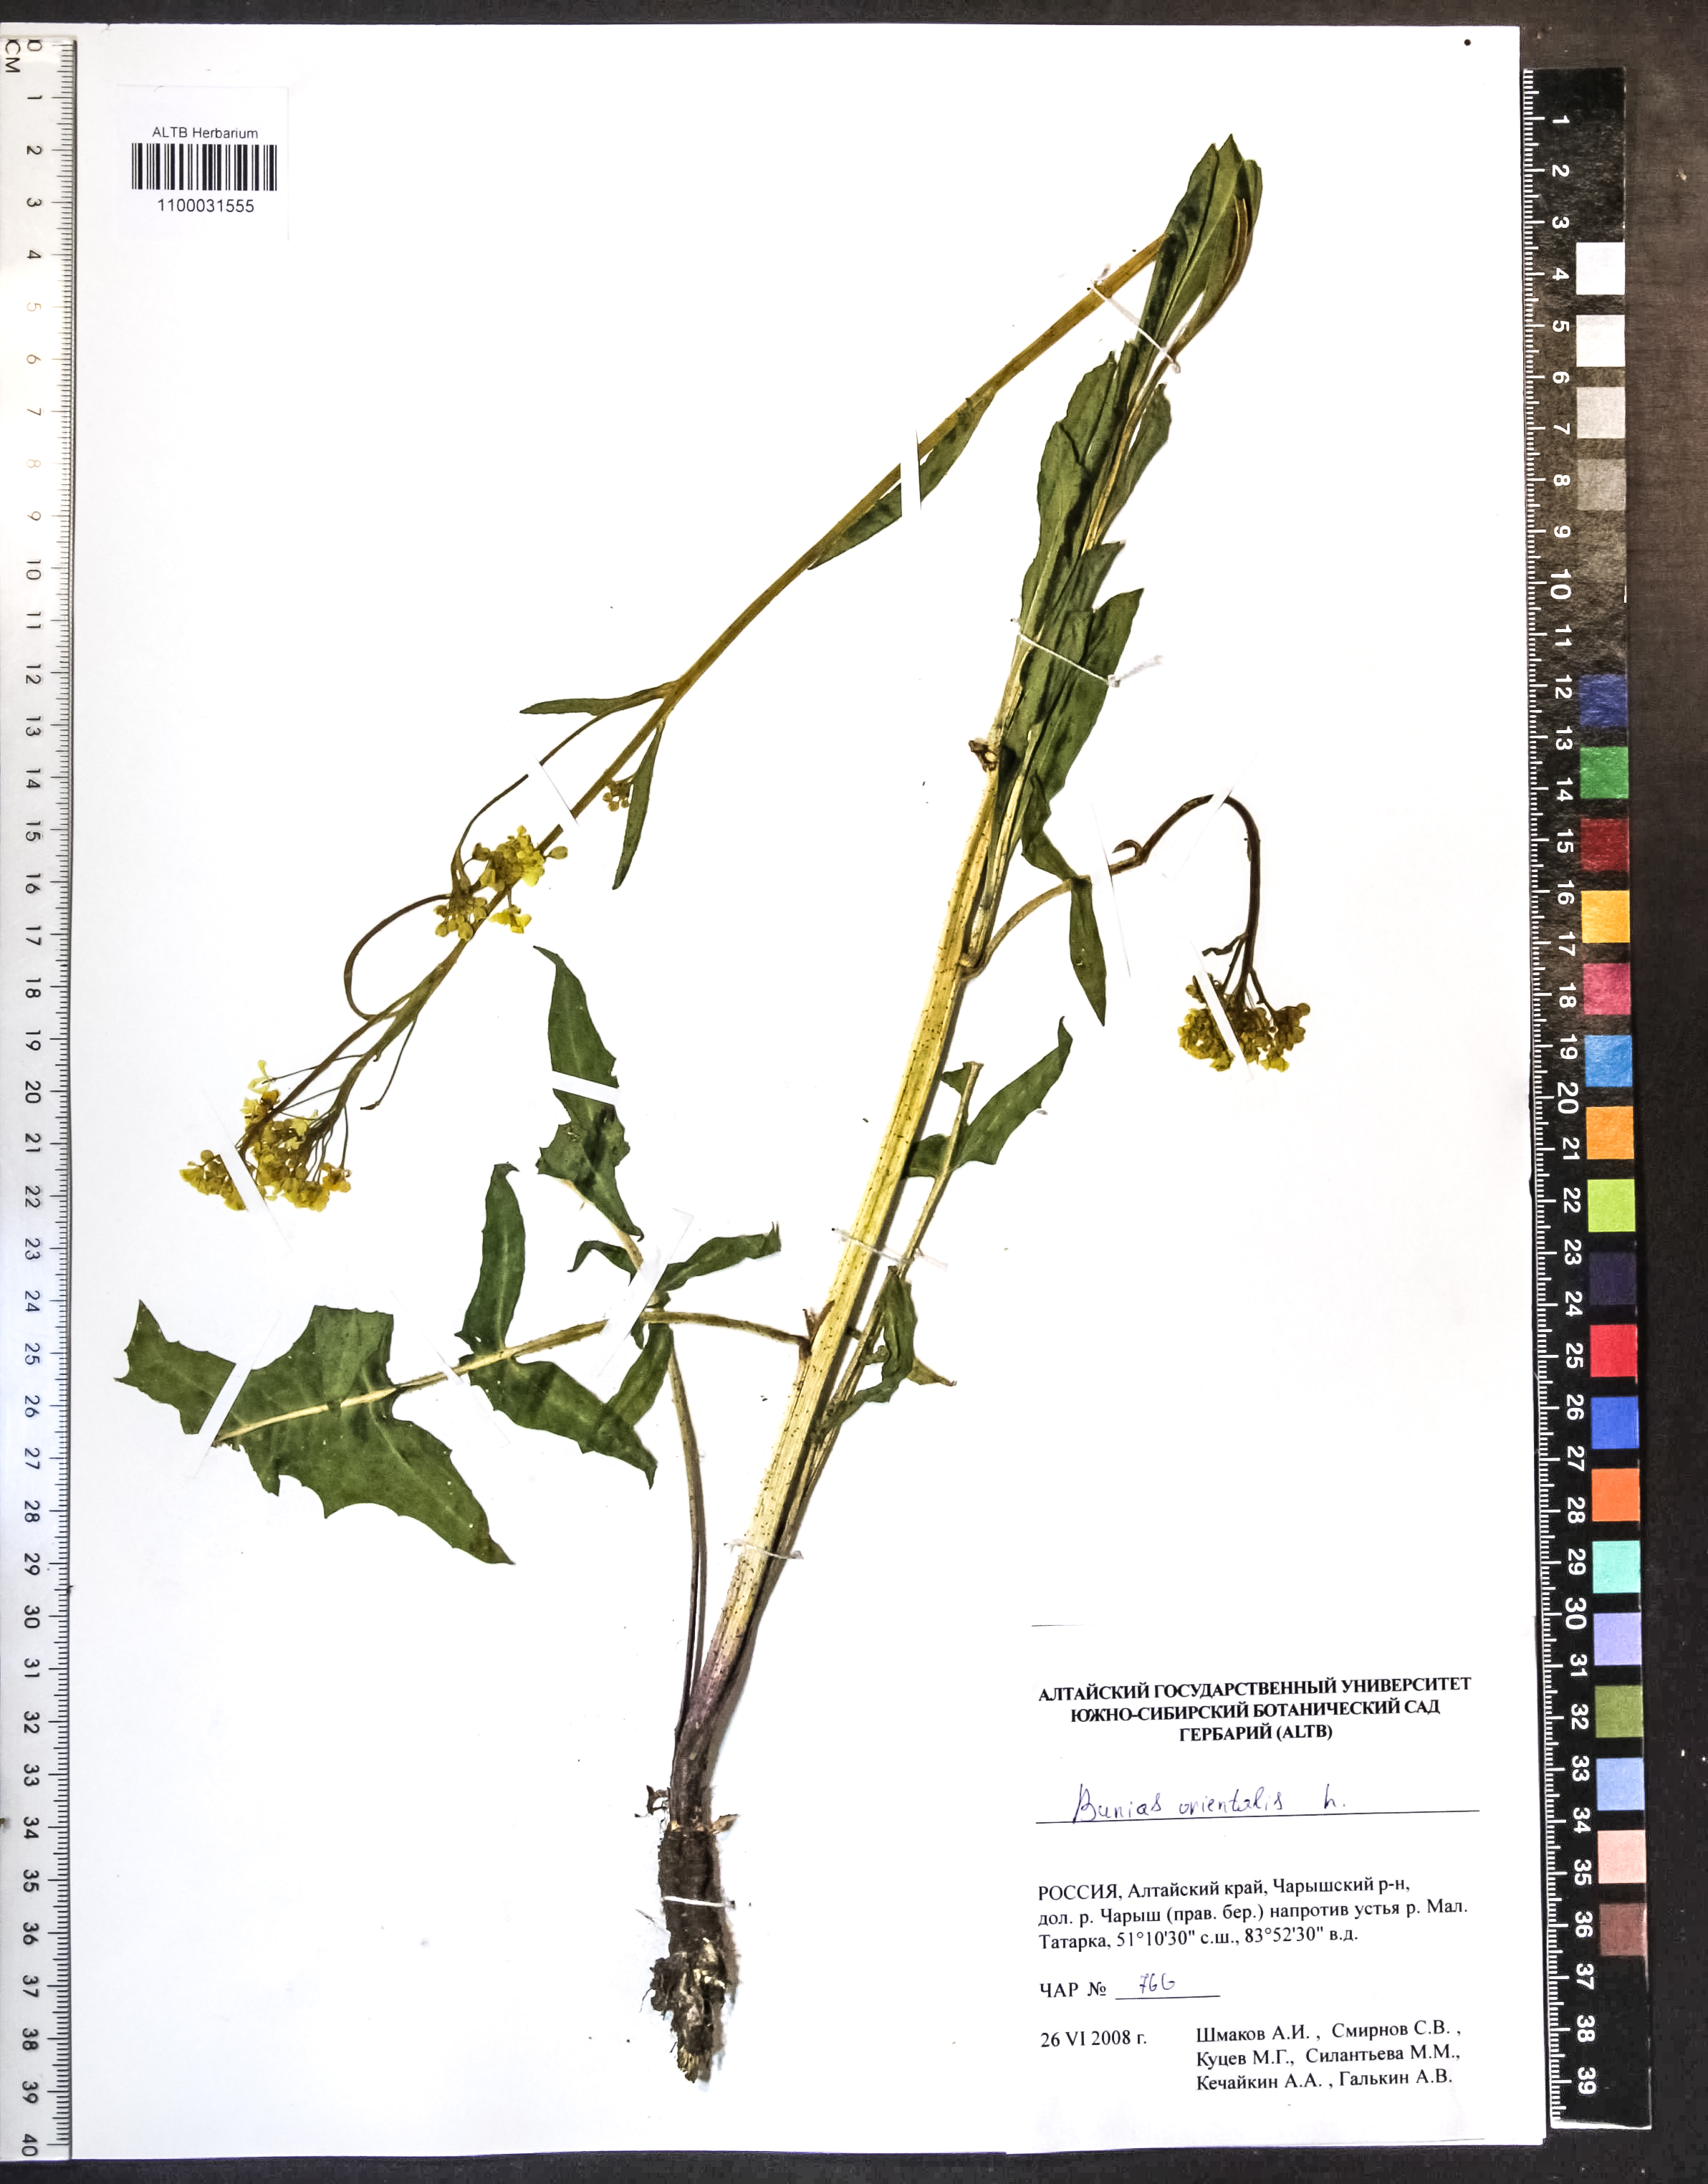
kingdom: Plantae
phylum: Tracheophyta
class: Magnoliopsida
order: Brassicales
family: Brassicaceae
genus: Bunias
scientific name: Bunias orientalis
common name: Warty-cabbage
